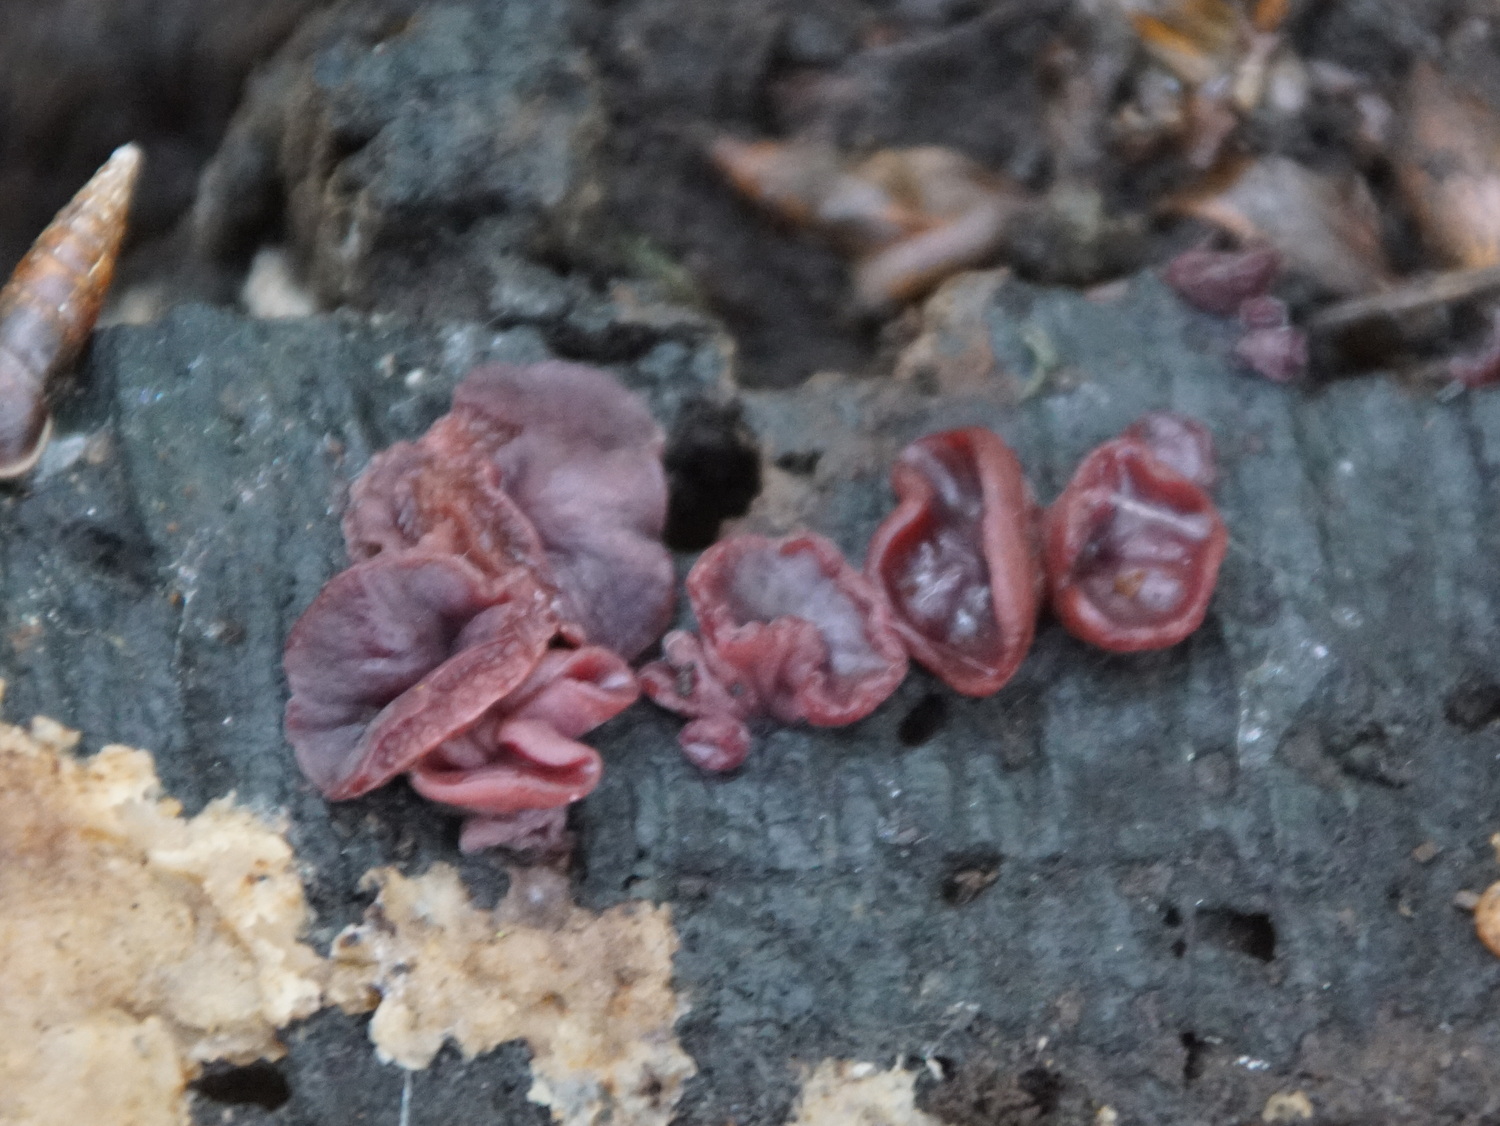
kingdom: Fungi
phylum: Ascomycota
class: Leotiomycetes
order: Helotiales
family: Gelatinodiscaceae
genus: Ascocoryne
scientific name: Ascocoryne cylichnium
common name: stor sejskive
